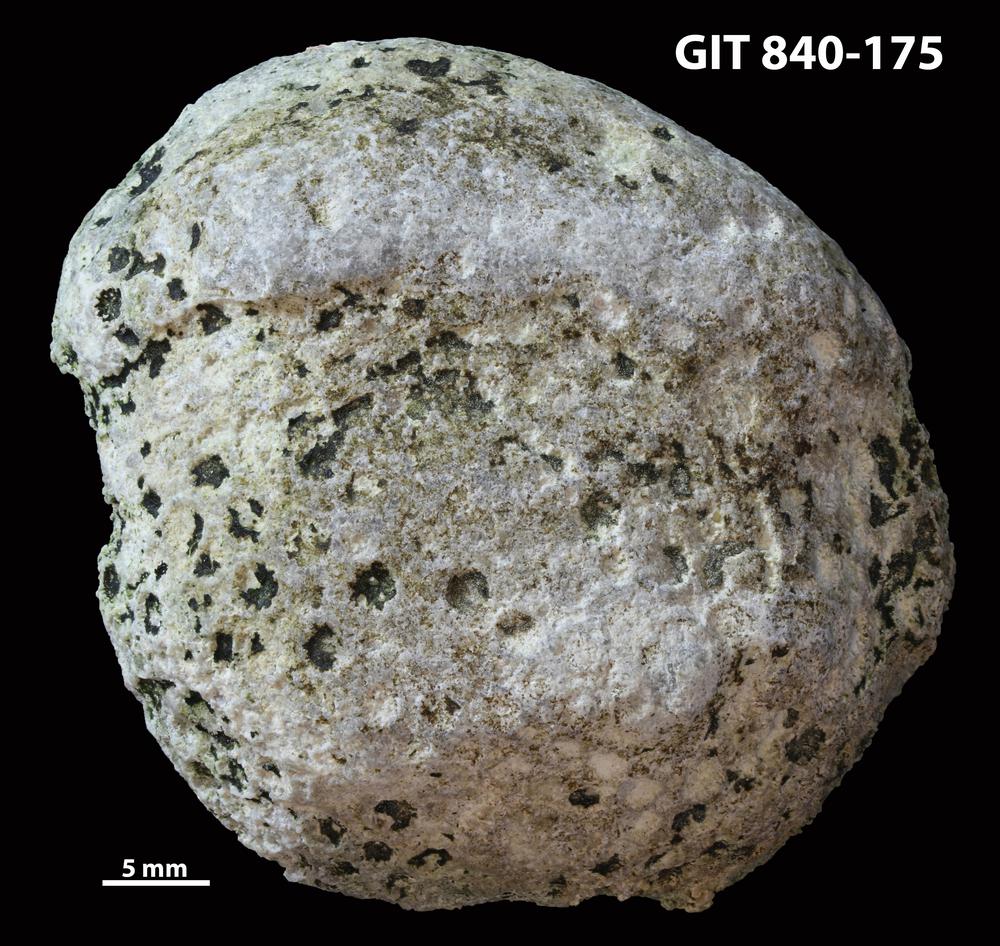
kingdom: Animalia
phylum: Xenacoelomorpha
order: Acoela
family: Proporidae
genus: Propora
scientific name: Propora
